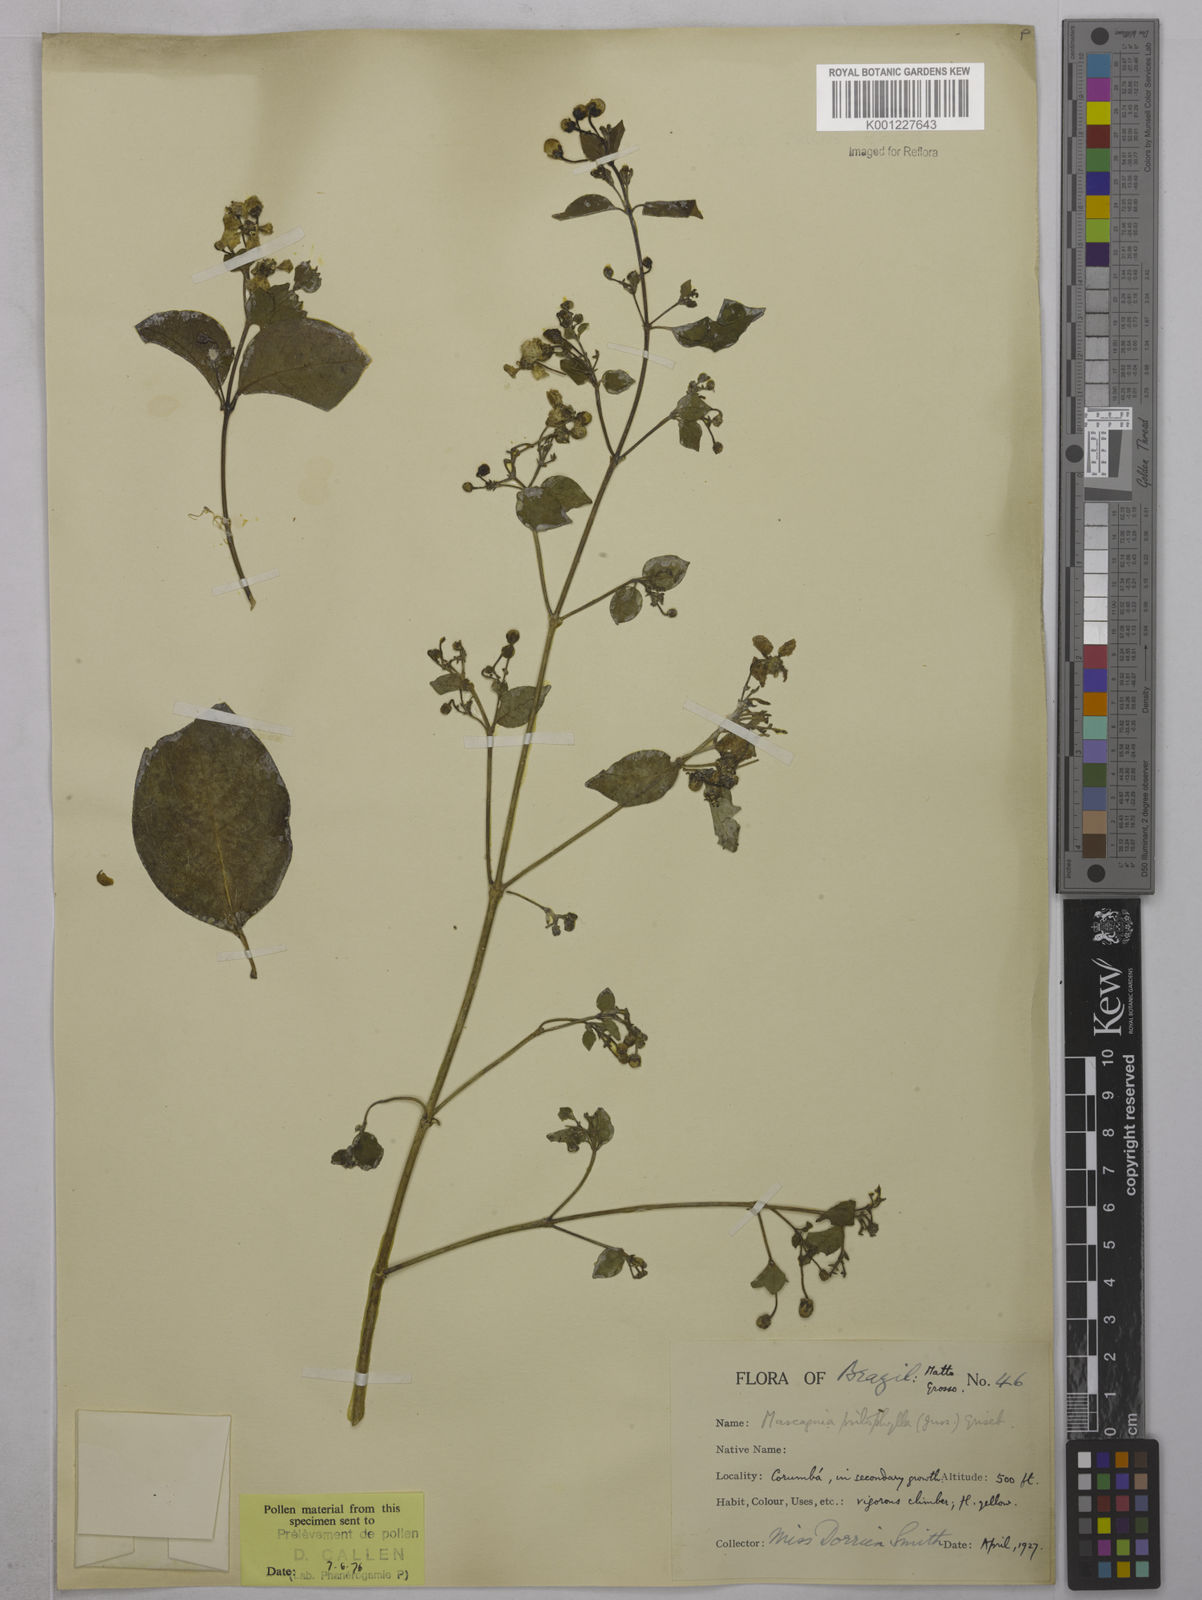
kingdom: Plantae
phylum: Tracheophyta
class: Magnoliopsida
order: Malpighiales
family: Malpighiaceae
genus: Callaeum
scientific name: Callaeum psilophyllum
